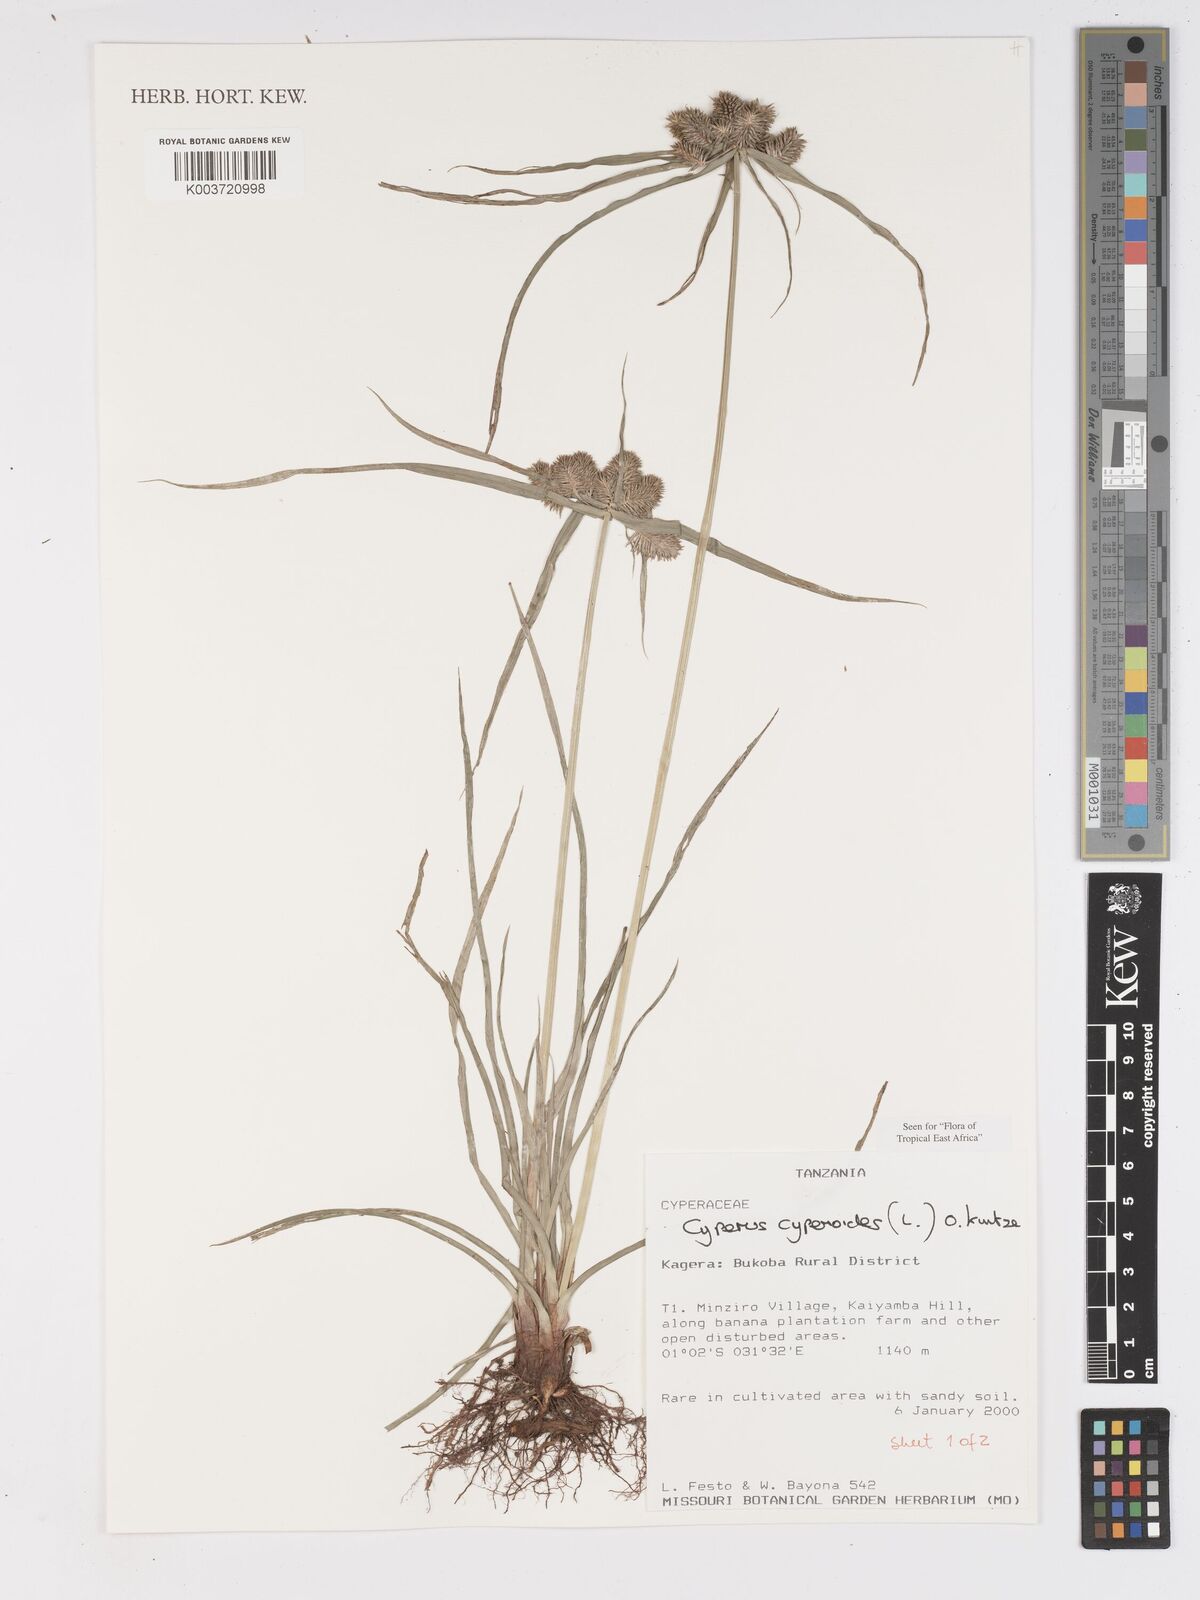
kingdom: Plantae
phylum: Tracheophyta
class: Liliopsida
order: Poales
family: Cyperaceae
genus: Cyperus
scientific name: Cyperus
